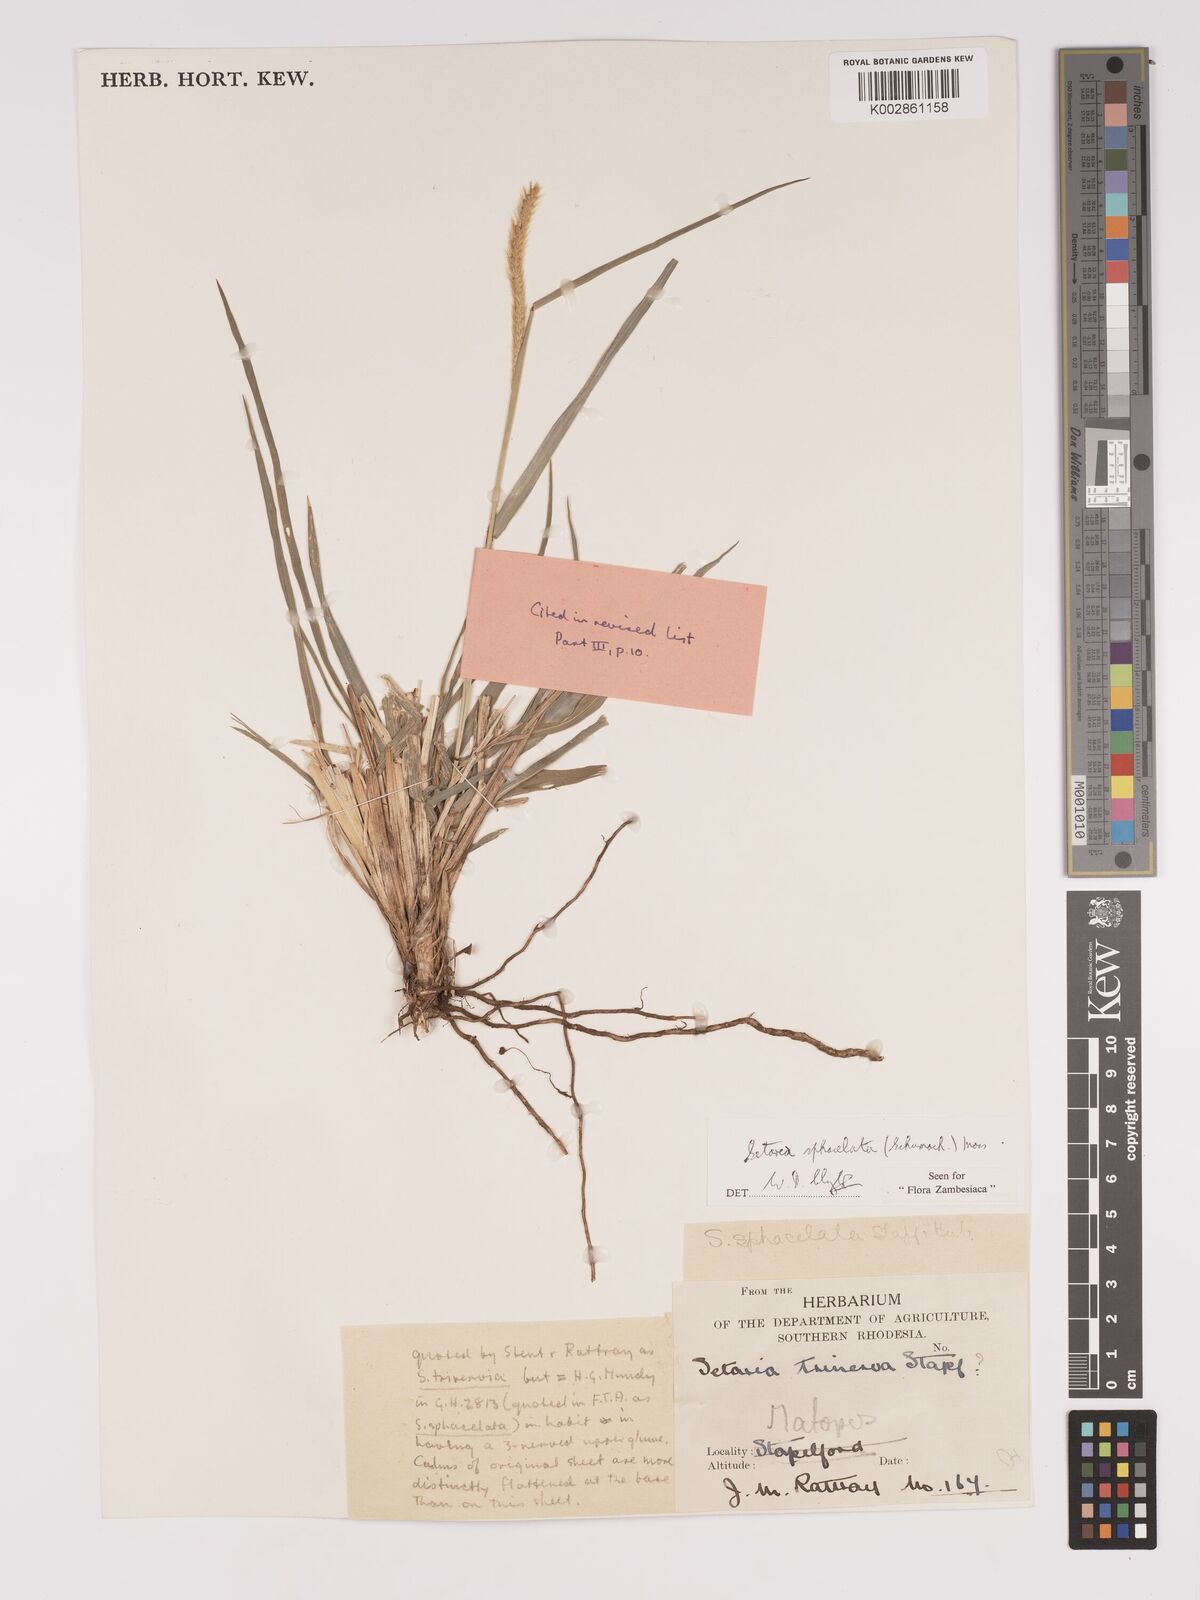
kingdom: Plantae
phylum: Tracheophyta
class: Liliopsida
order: Poales
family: Poaceae
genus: Setaria
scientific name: Setaria sphacelata
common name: African bristlegrass
